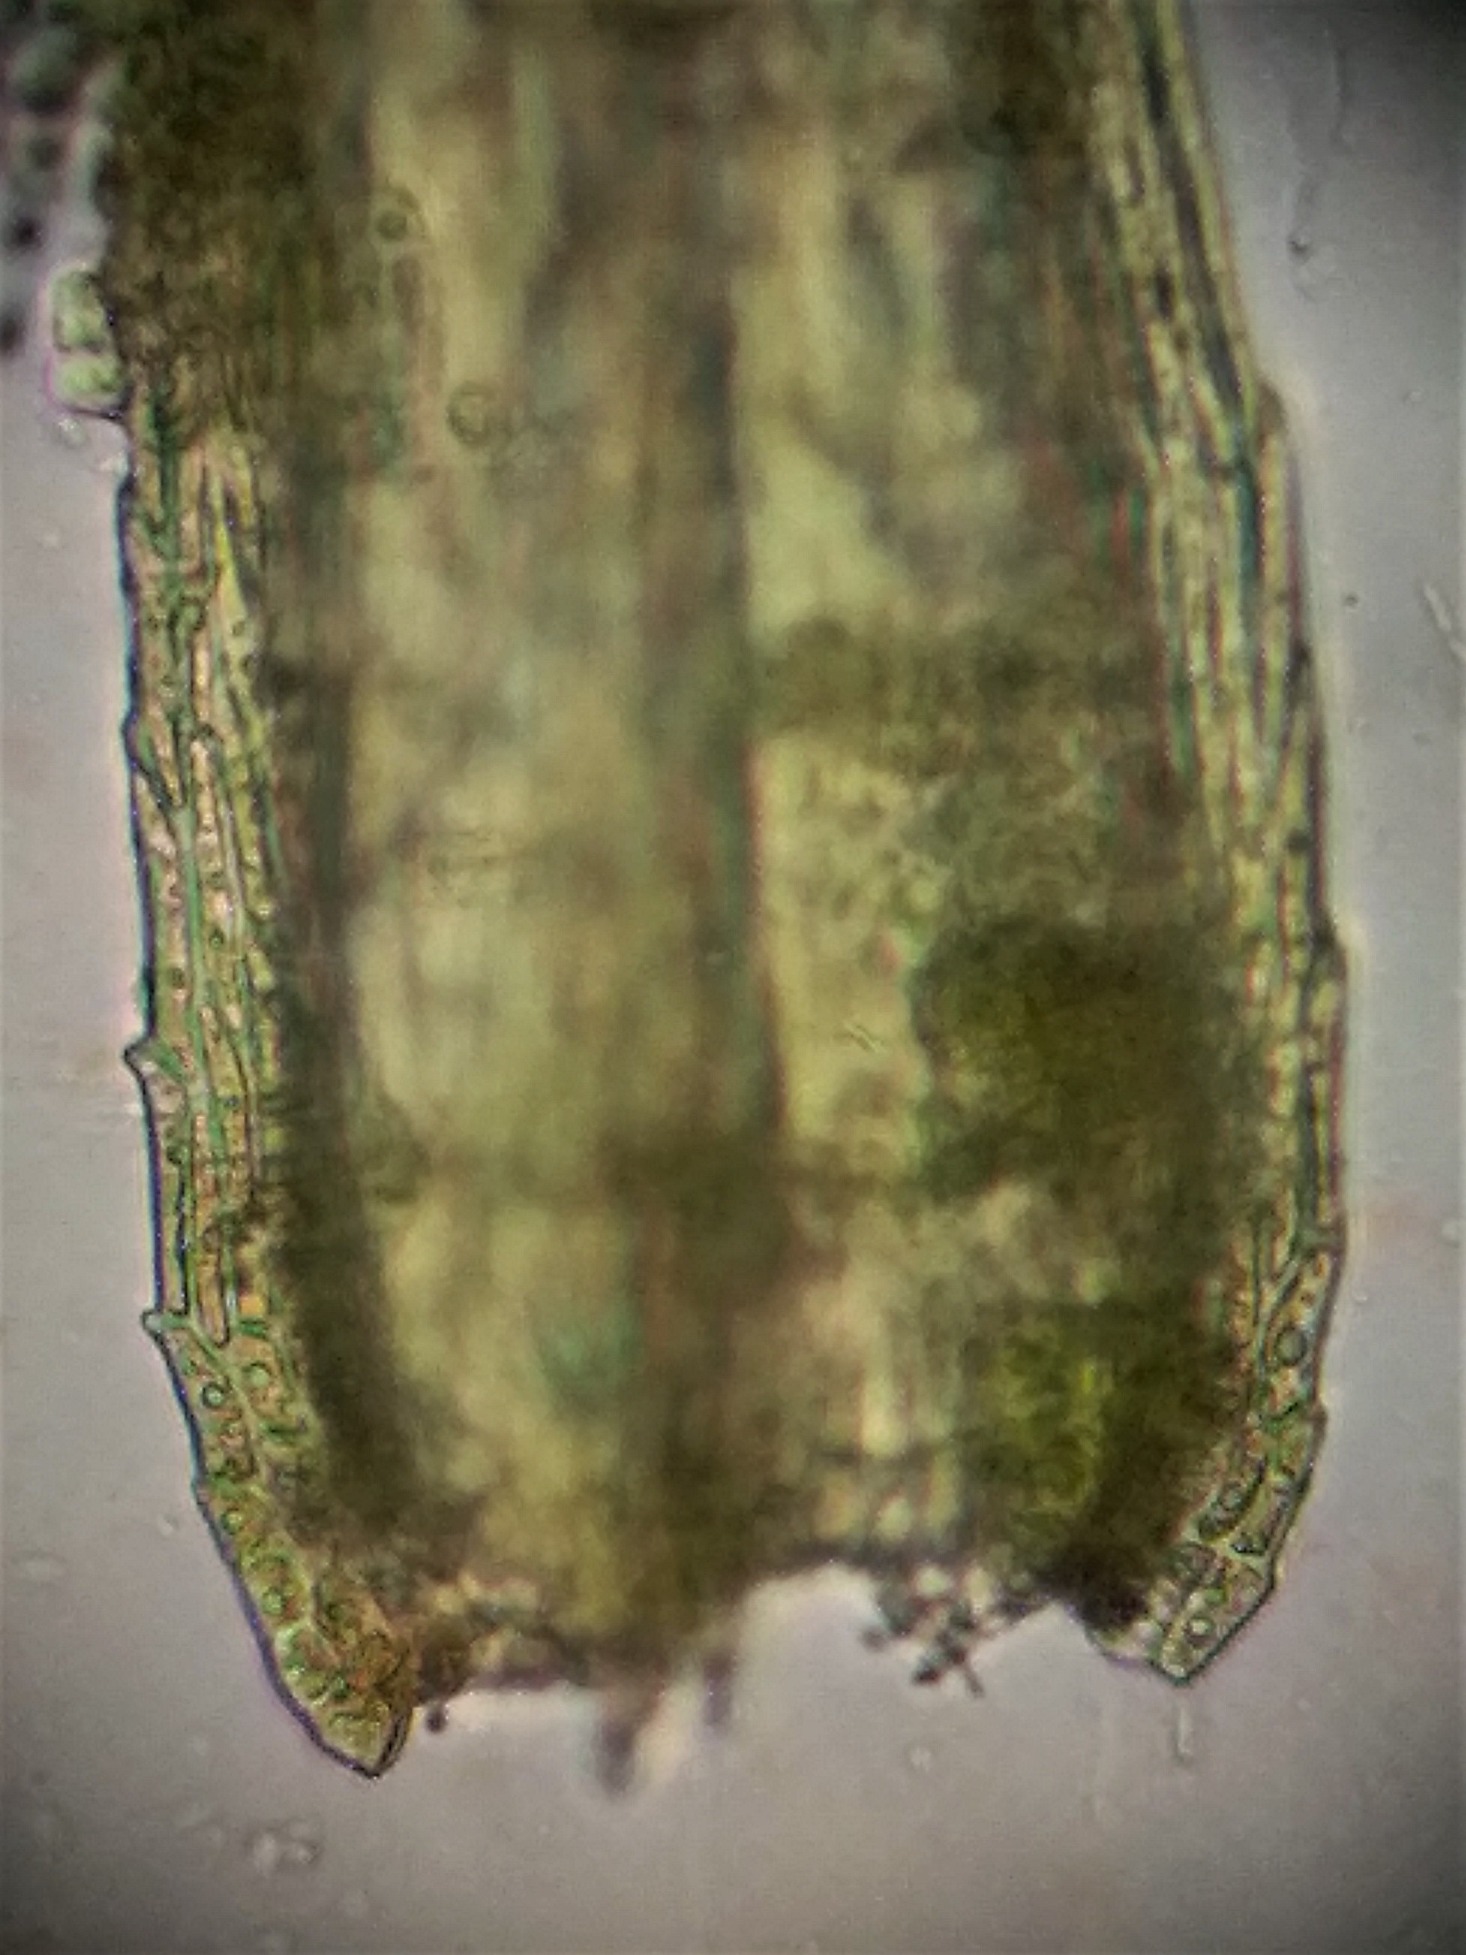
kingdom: Plantae
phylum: Bryophyta
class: Bryopsida
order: Hypnales
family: Brachytheciaceae
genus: Homalothecium
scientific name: Homalothecium sericeum
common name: Krybende silkemos
